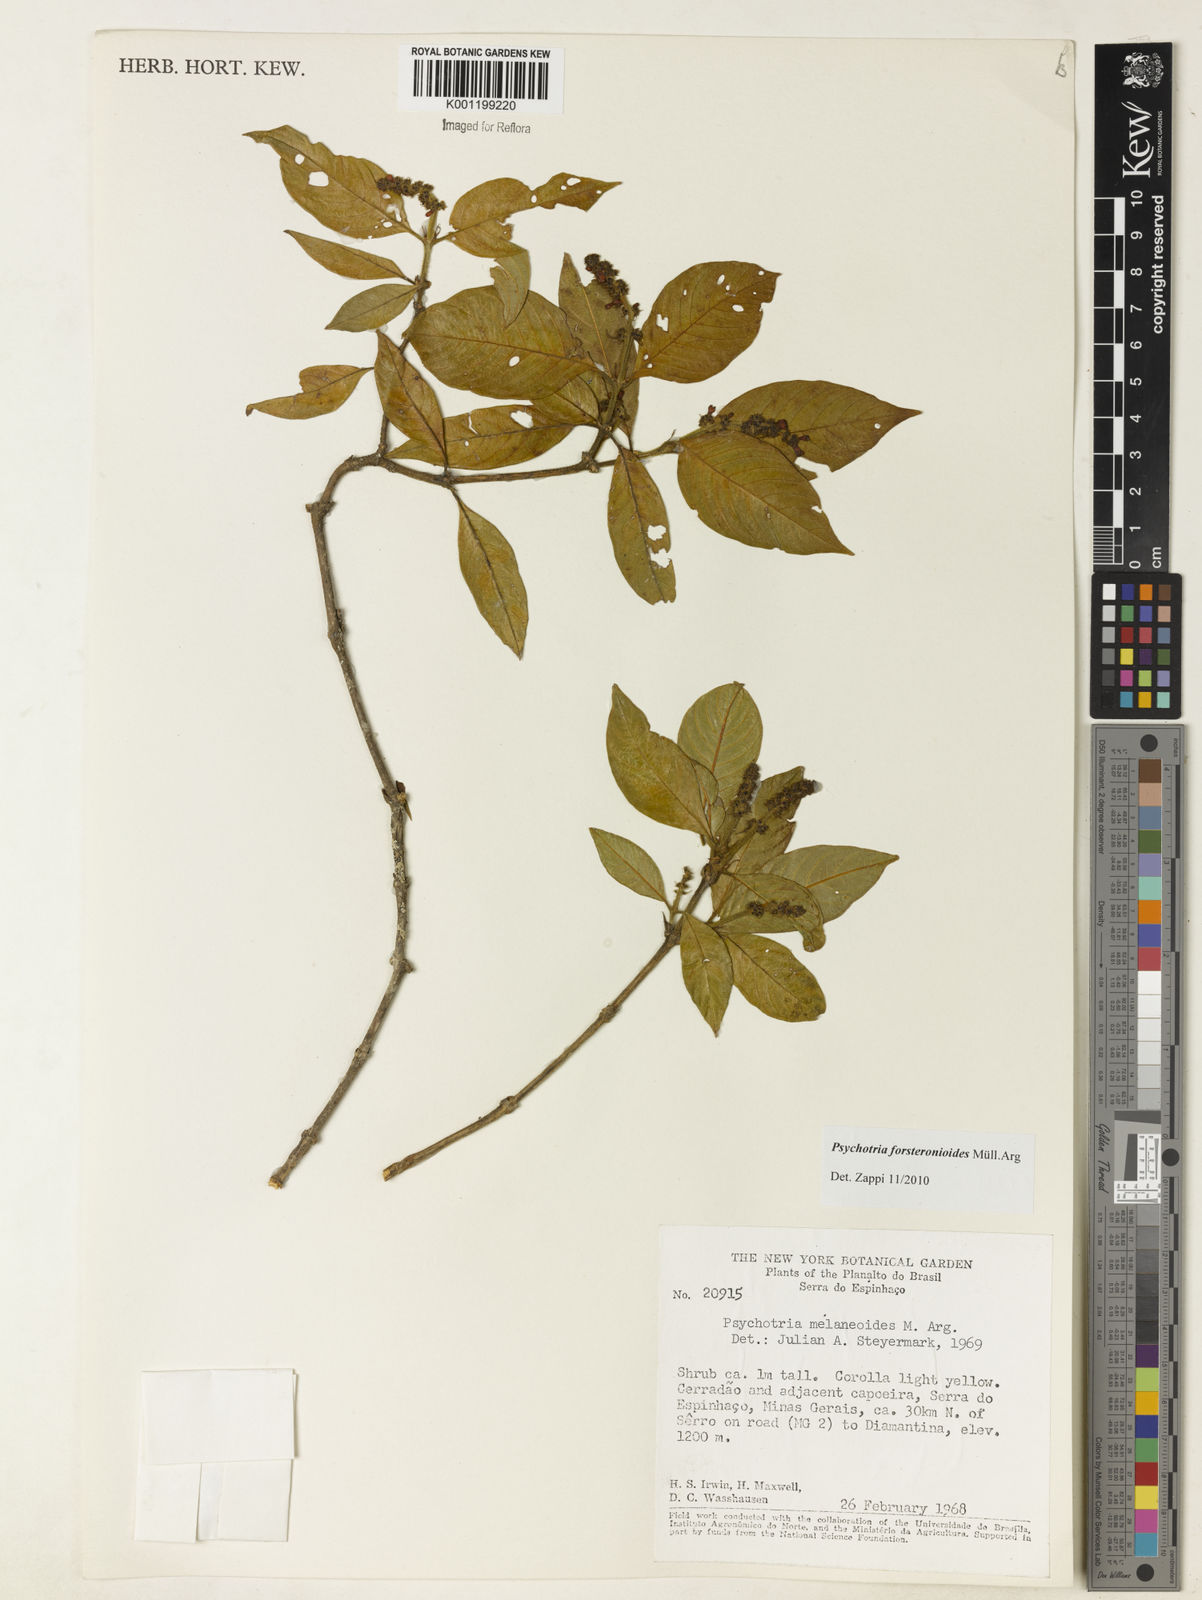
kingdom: Plantae
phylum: Tracheophyta
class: Magnoliopsida
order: Gentianales
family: Rubiaceae
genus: Psychotria
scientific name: Psychotria
